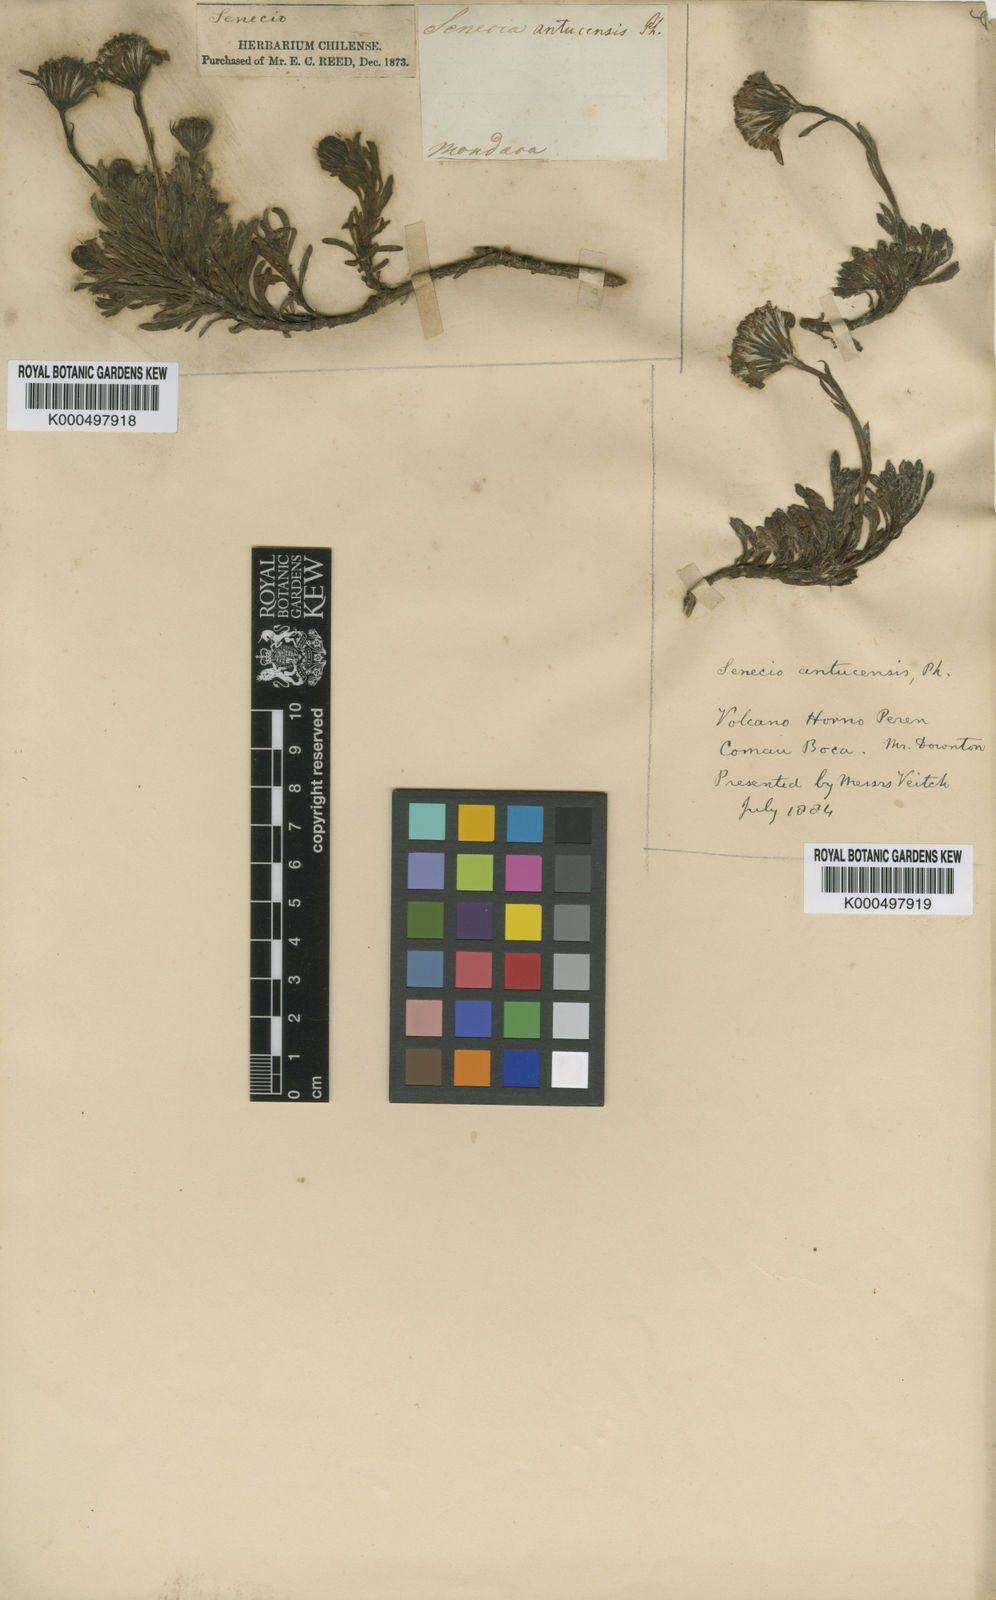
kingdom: Plantae
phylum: Tracheophyta
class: Magnoliopsida
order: Asterales
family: Asteraceae
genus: Senecio
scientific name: Senecio portalesianus
